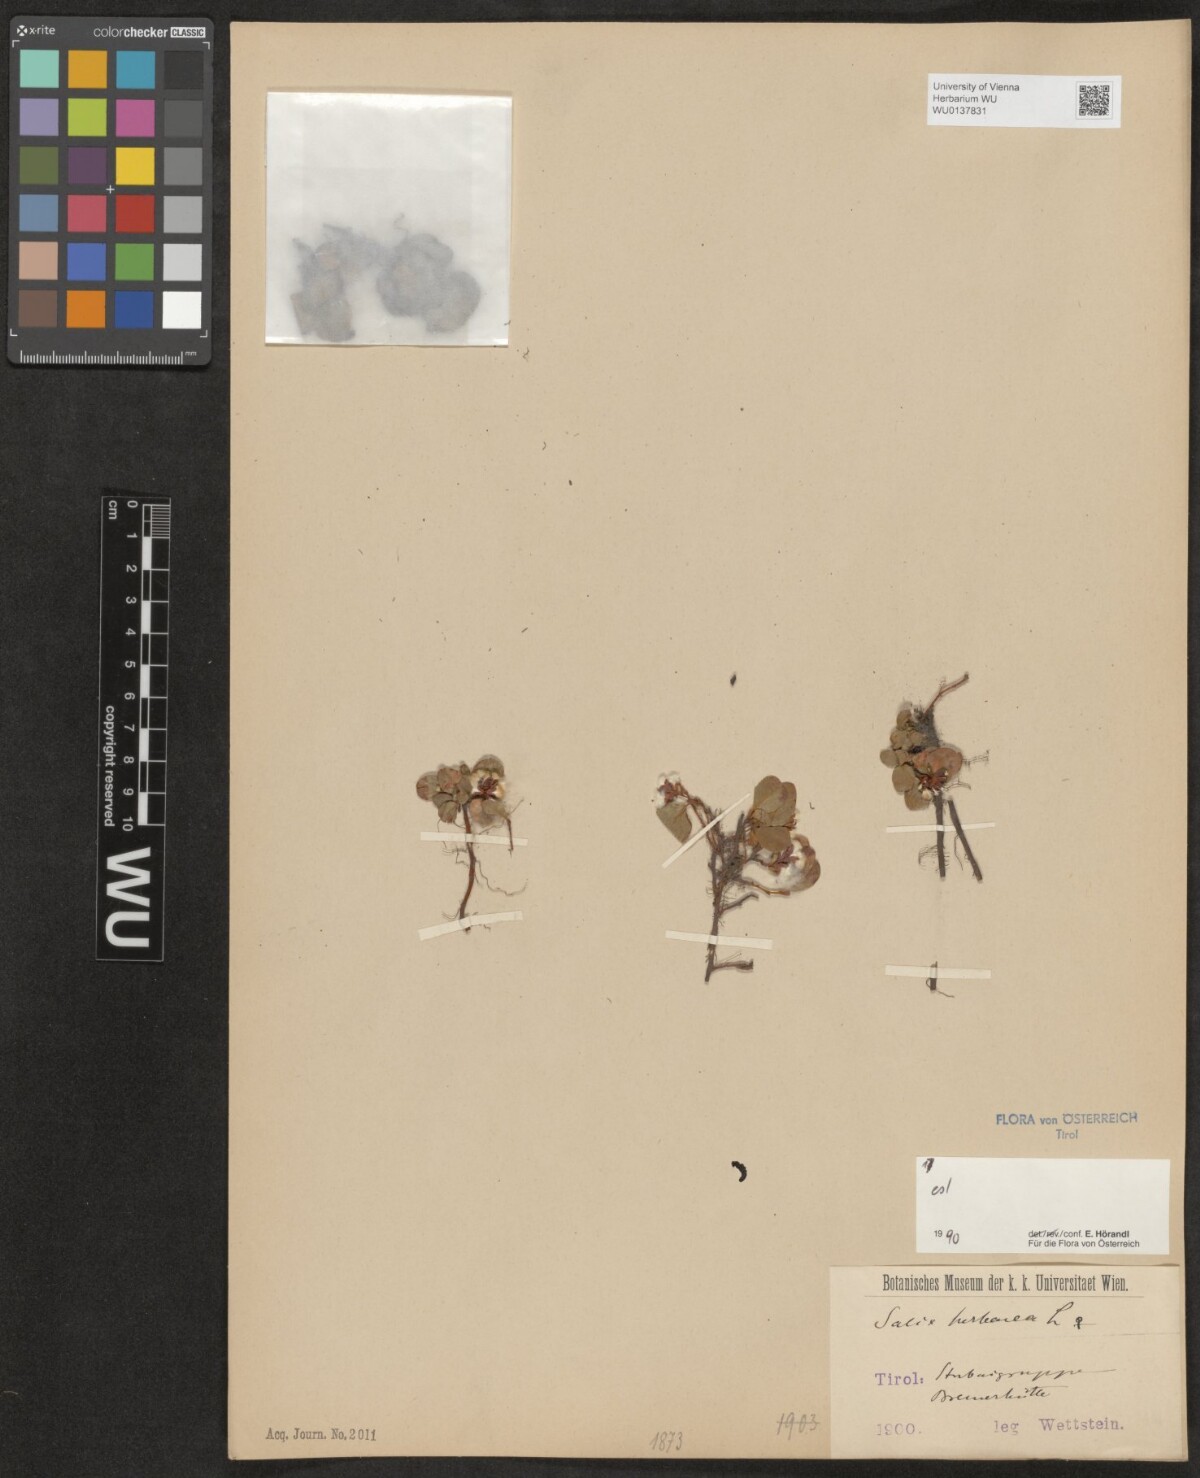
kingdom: Plantae
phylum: Tracheophyta
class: Magnoliopsida
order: Malpighiales
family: Salicaceae
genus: Salix
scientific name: Salix herbacea
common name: Dwarf willow
